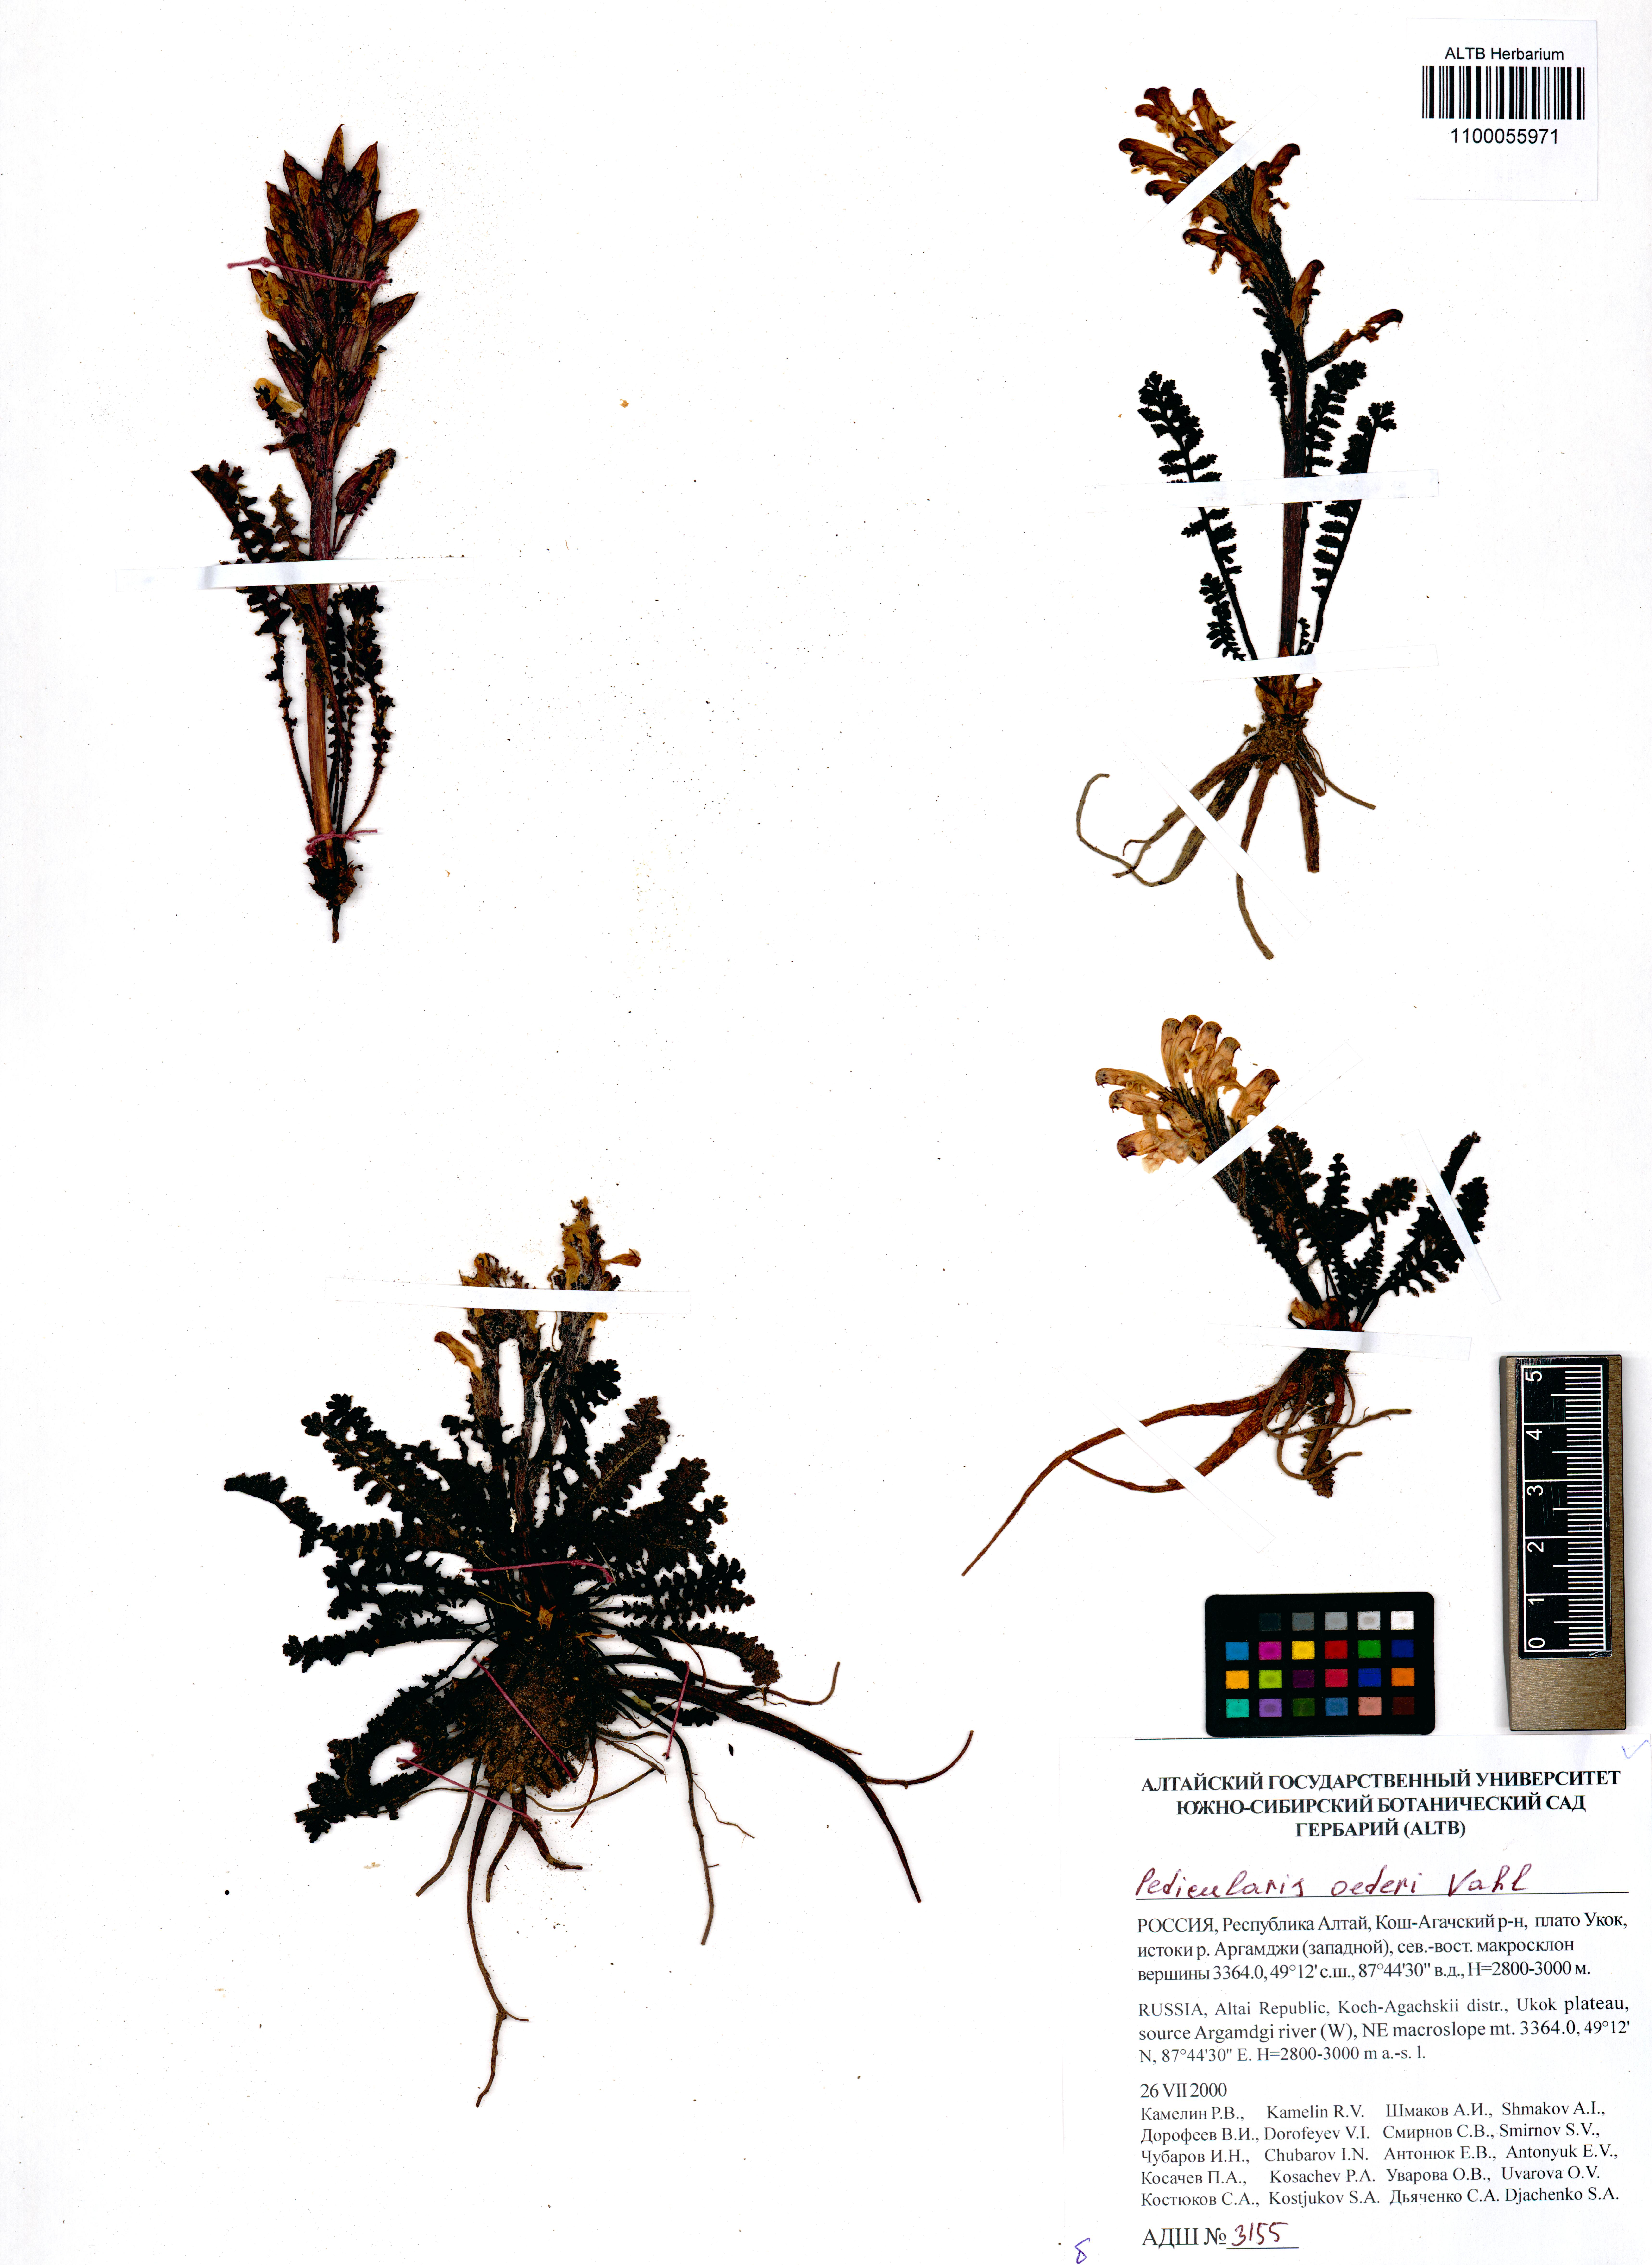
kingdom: Plantae
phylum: Tracheophyta
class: Magnoliopsida
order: Lamiales
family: Orobanchaceae
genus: Pedicularis
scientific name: Pedicularis oederi
